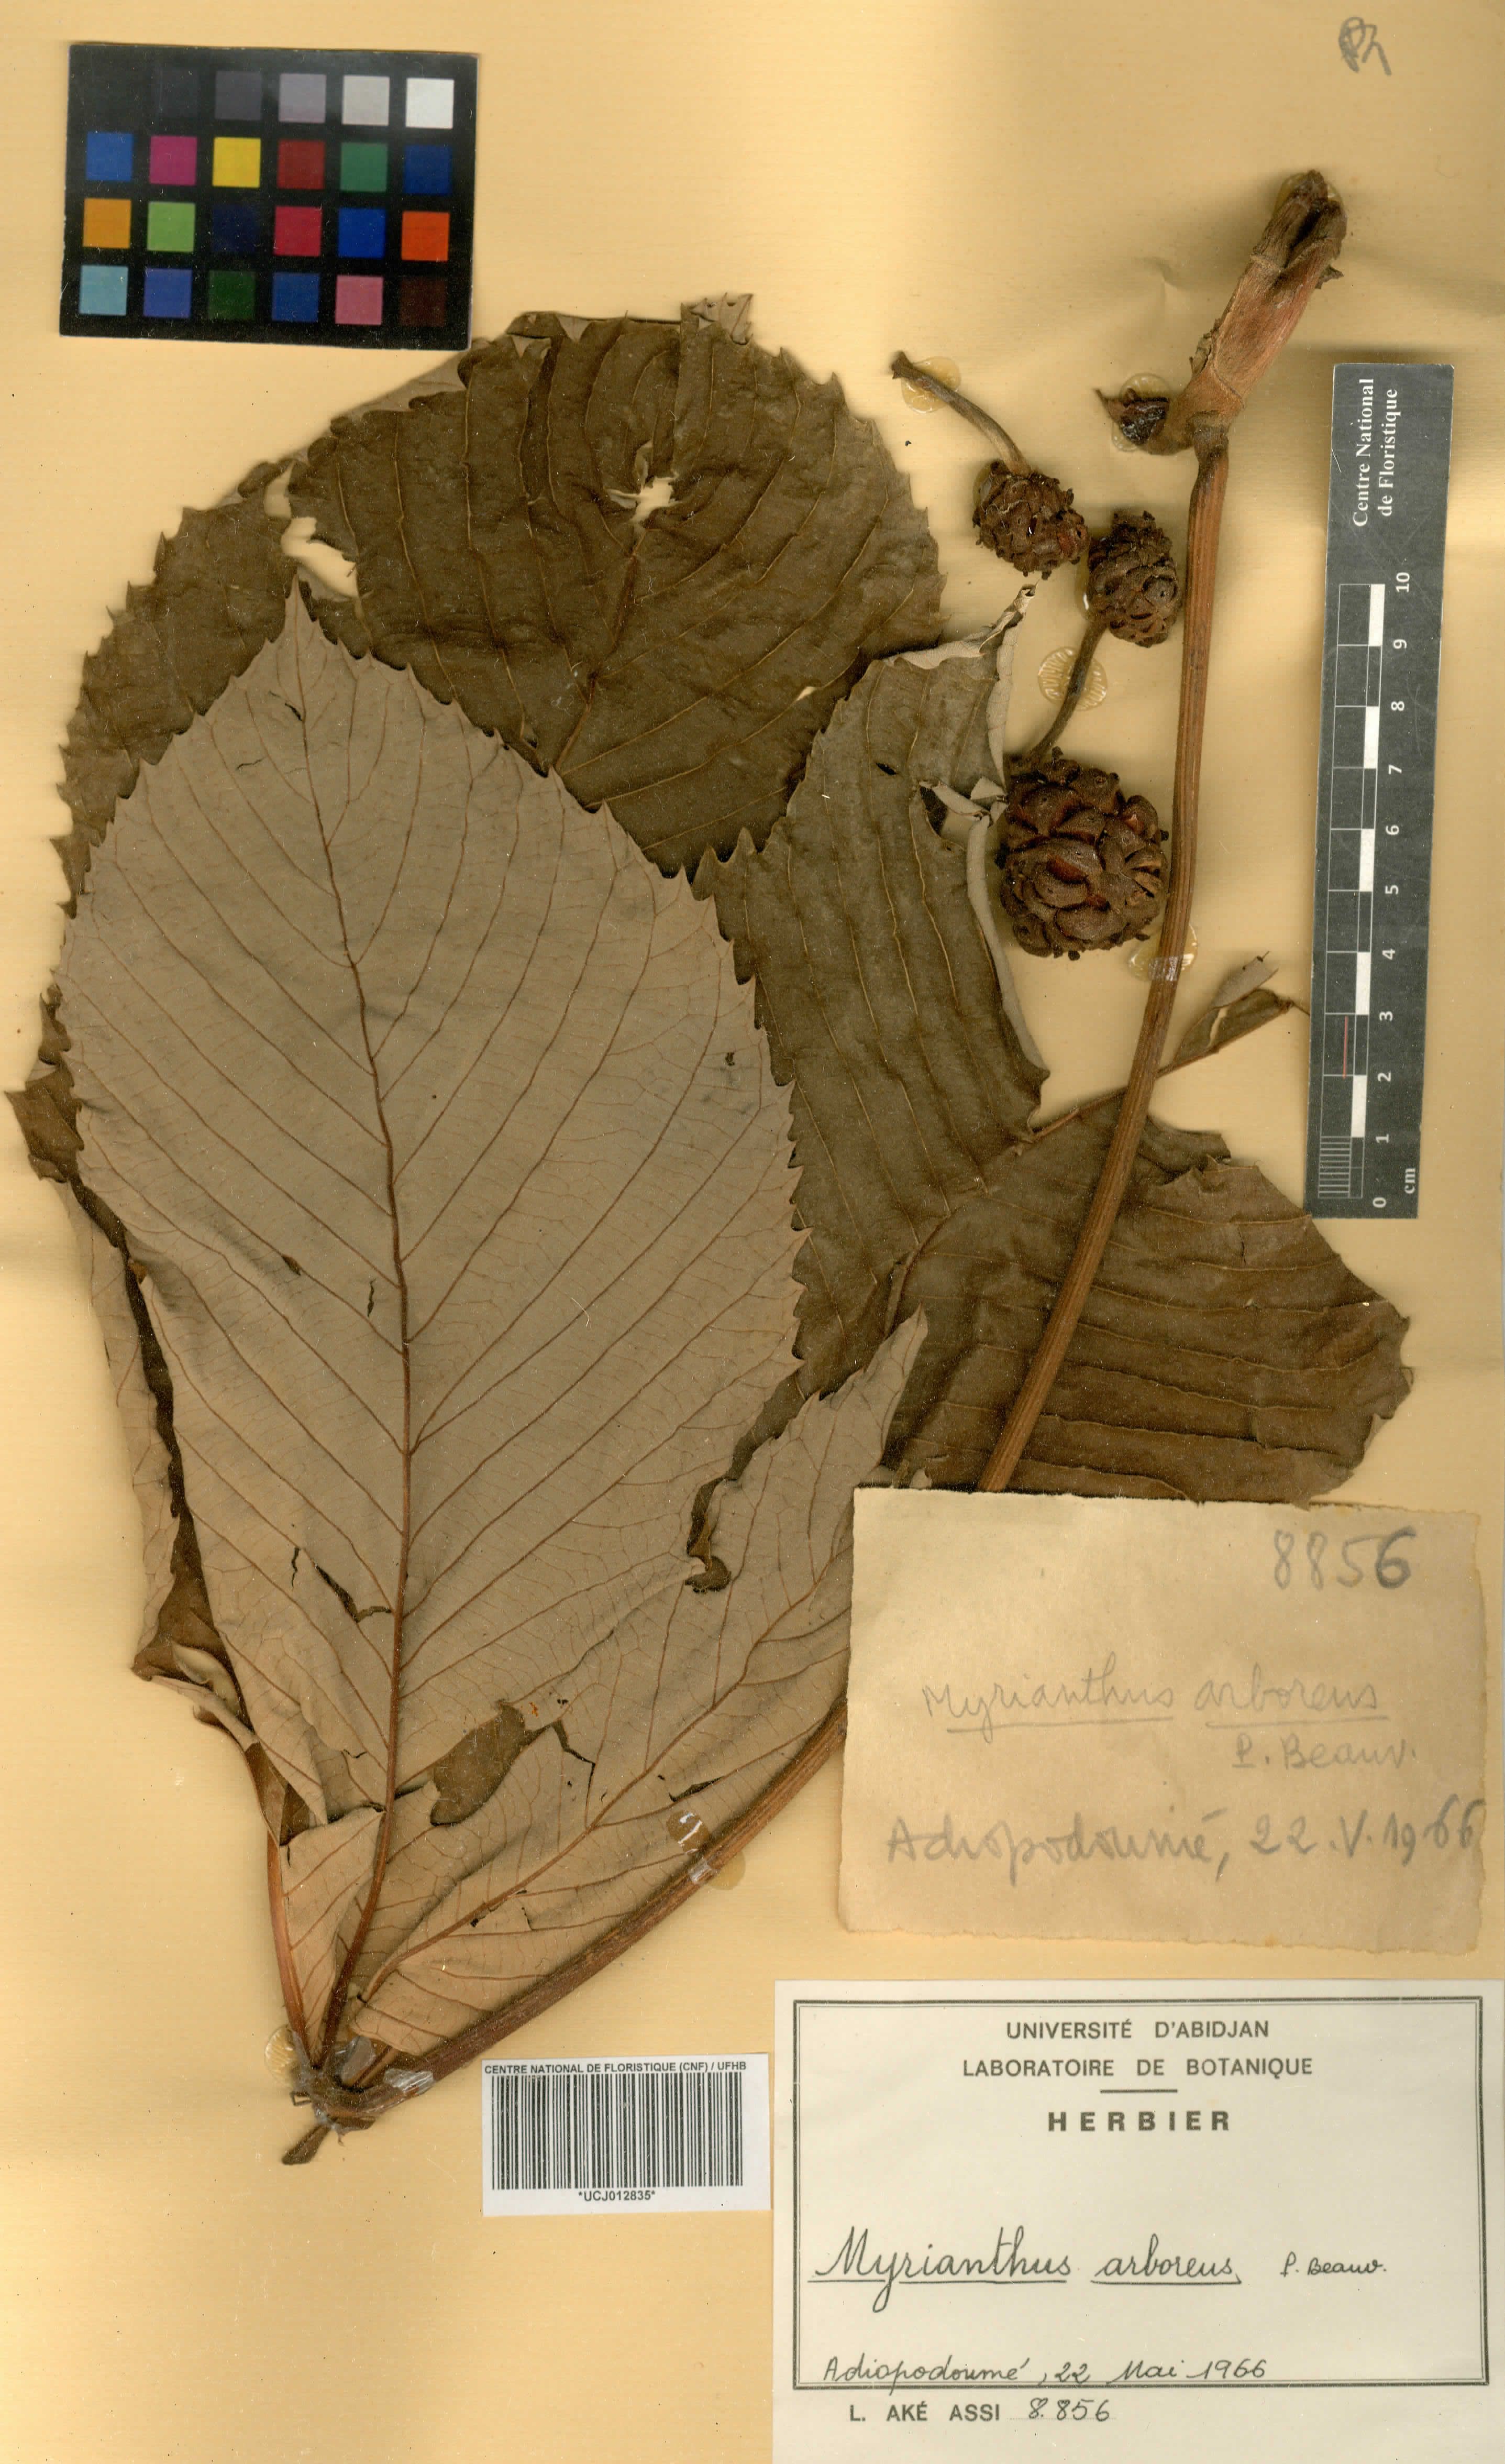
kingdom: Plantae
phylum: Tracheophyta
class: Magnoliopsida
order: Rosales
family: Urticaceae
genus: Myrianthus
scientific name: Myrianthus arboreus
